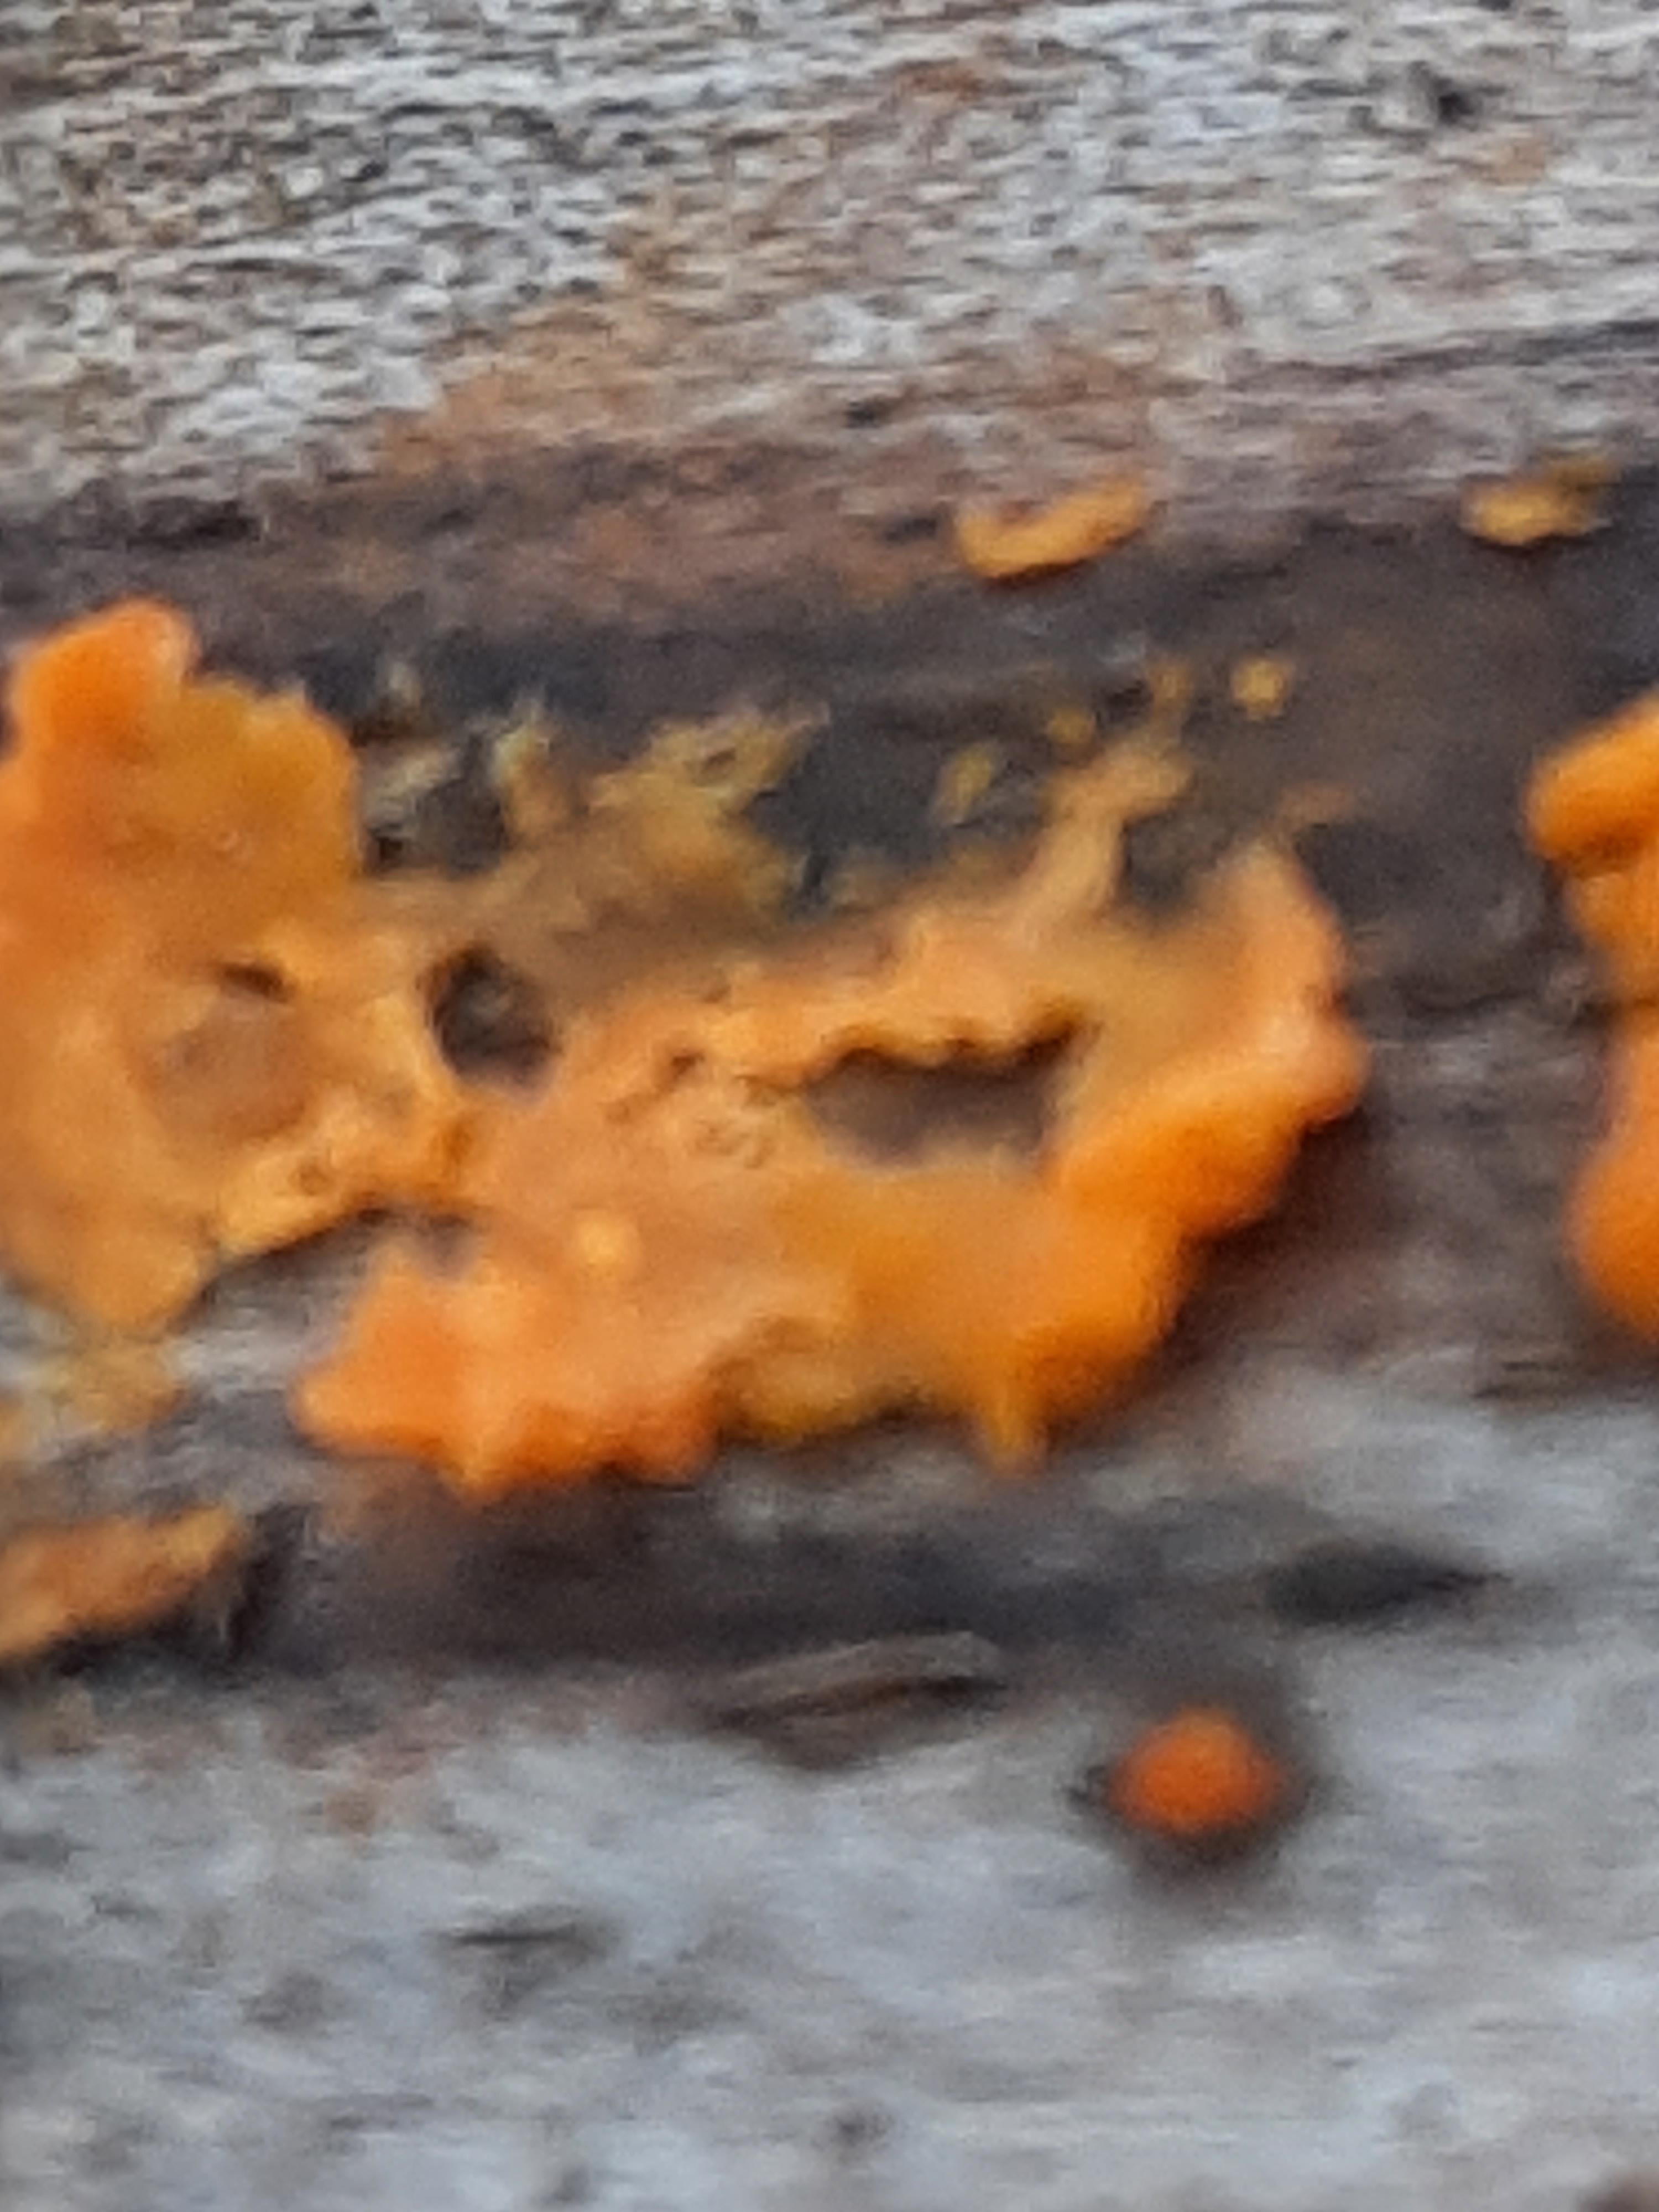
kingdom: Fungi
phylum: Basidiomycota
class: Dacrymycetes
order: Dacrymycetales
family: Dacrymycetaceae
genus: Dacrymyces
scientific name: Dacrymyces stillatus
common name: almindelig tåresvamp
